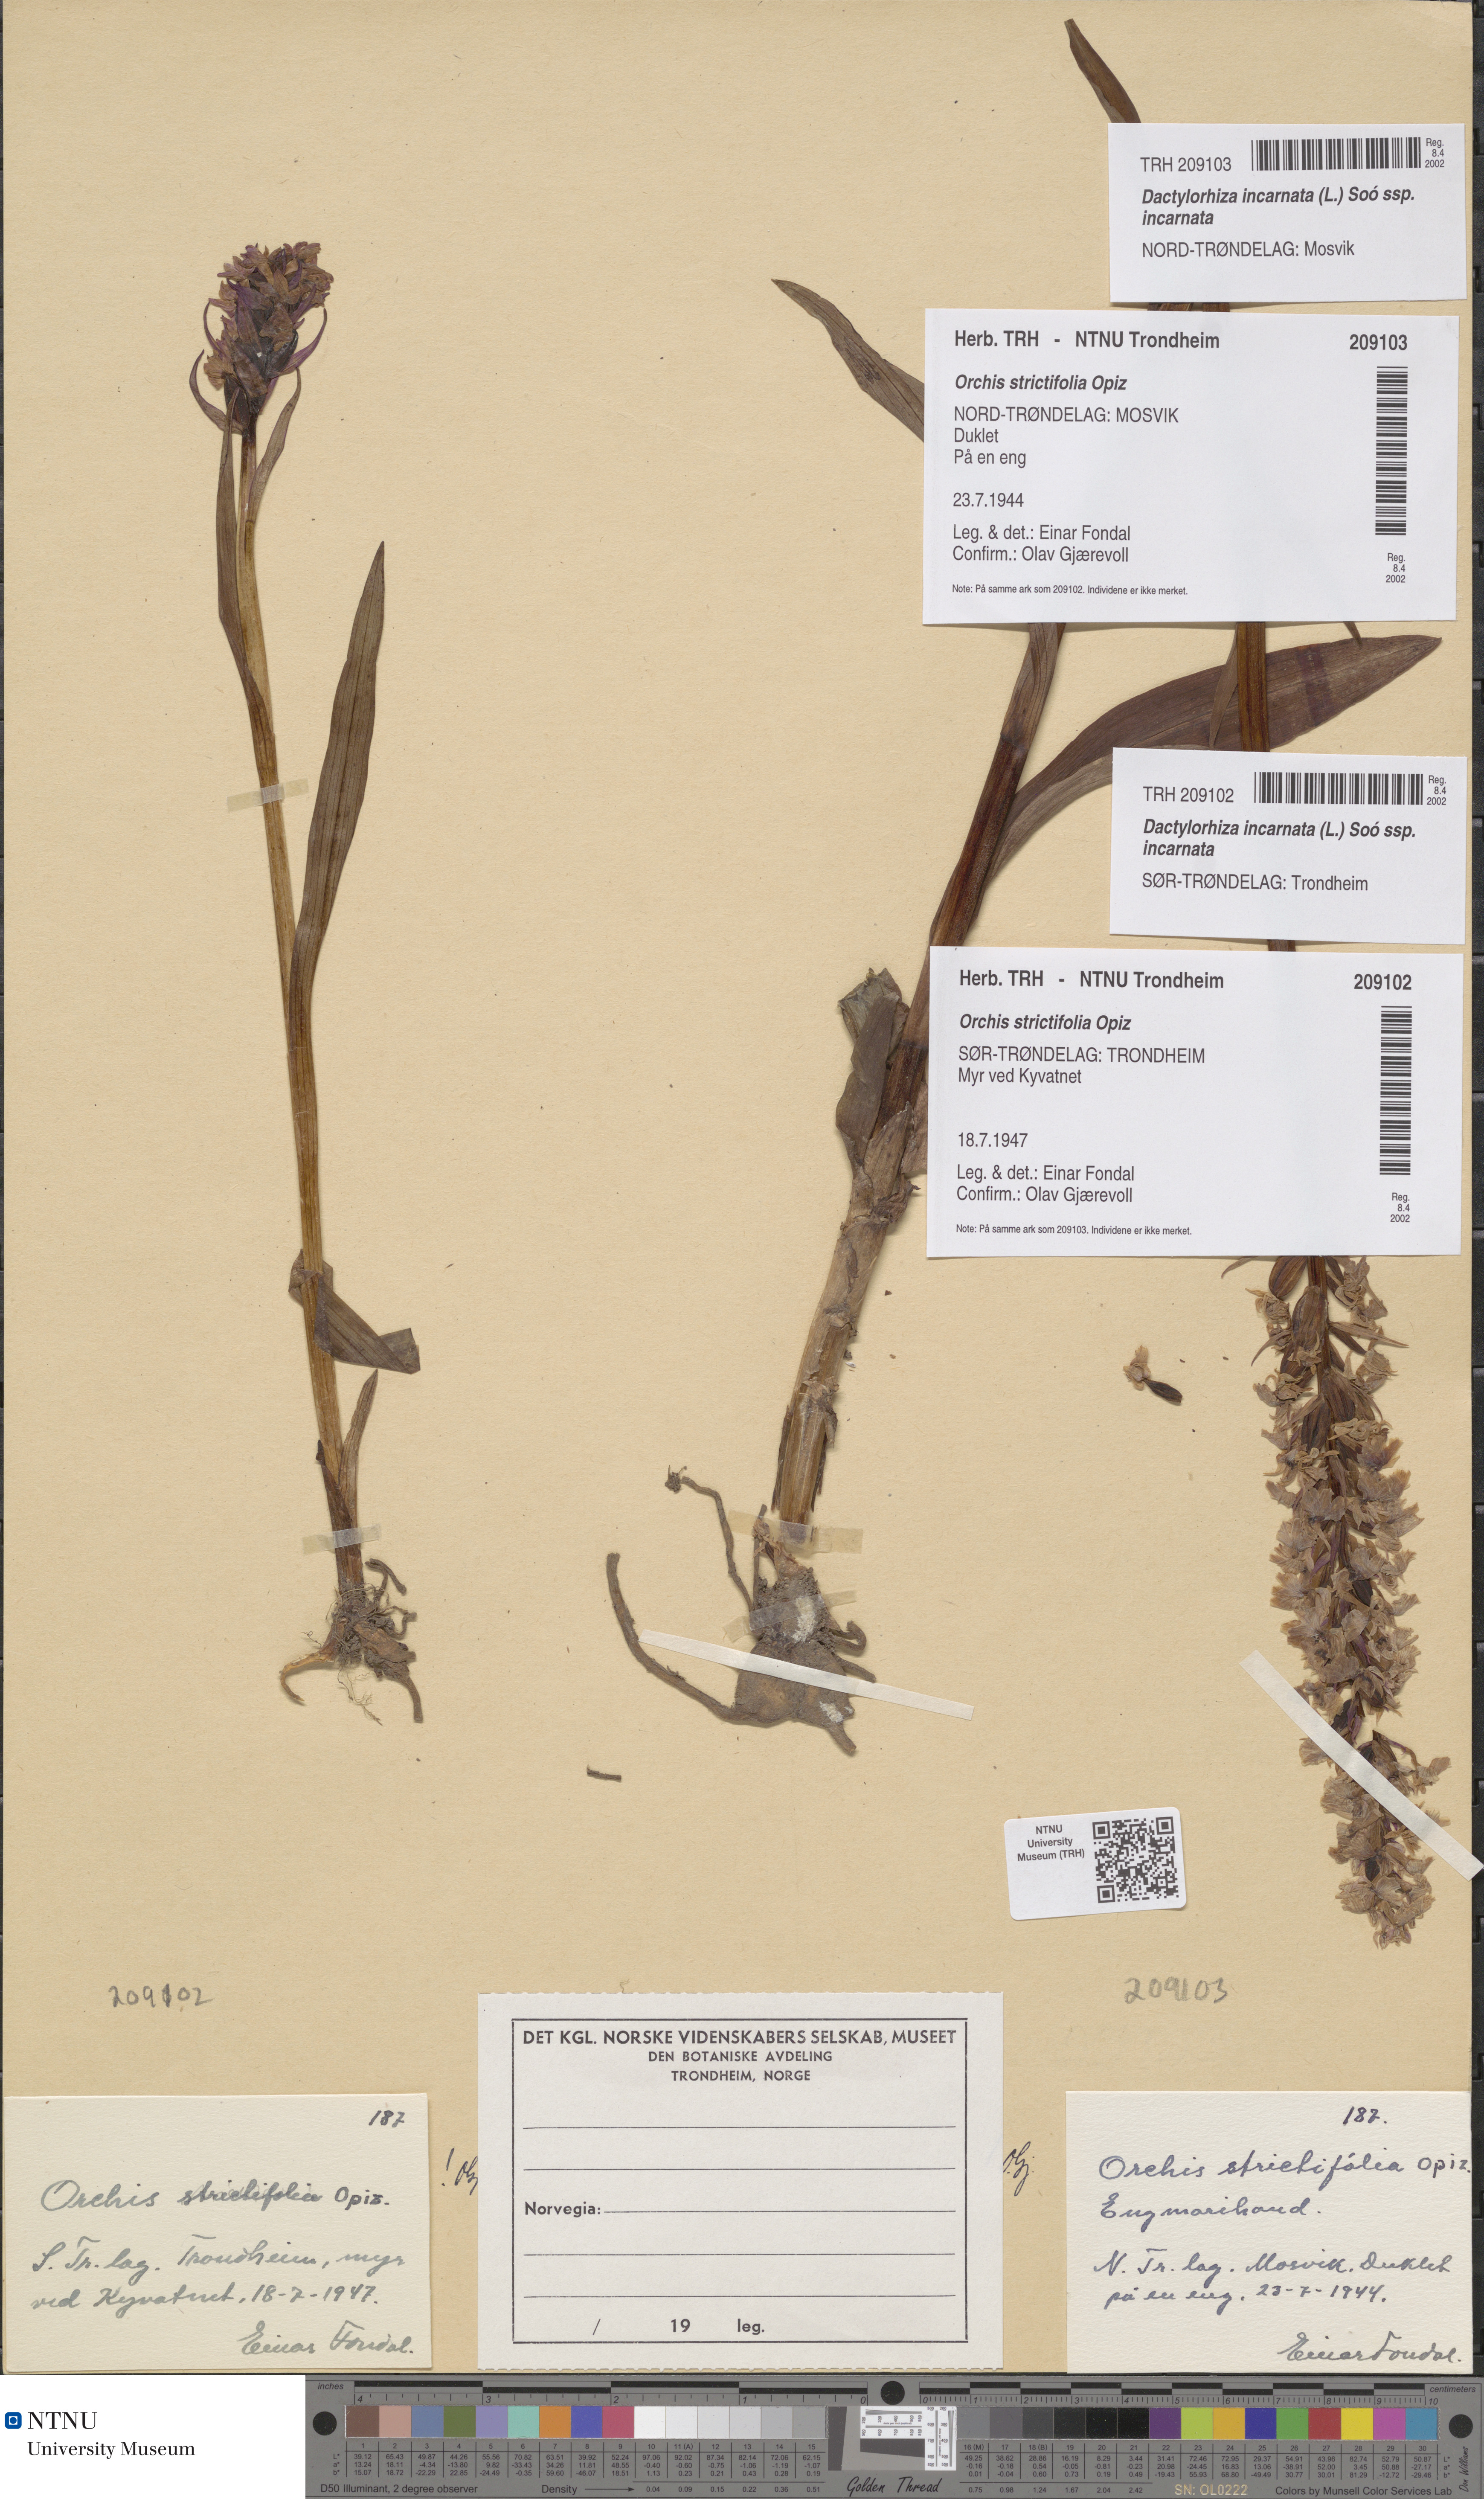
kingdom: Plantae
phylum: Tracheophyta
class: Liliopsida
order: Asparagales
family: Orchidaceae
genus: Dactylorhiza
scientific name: Dactylorhiza incarnata
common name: Early marsh-orchid
